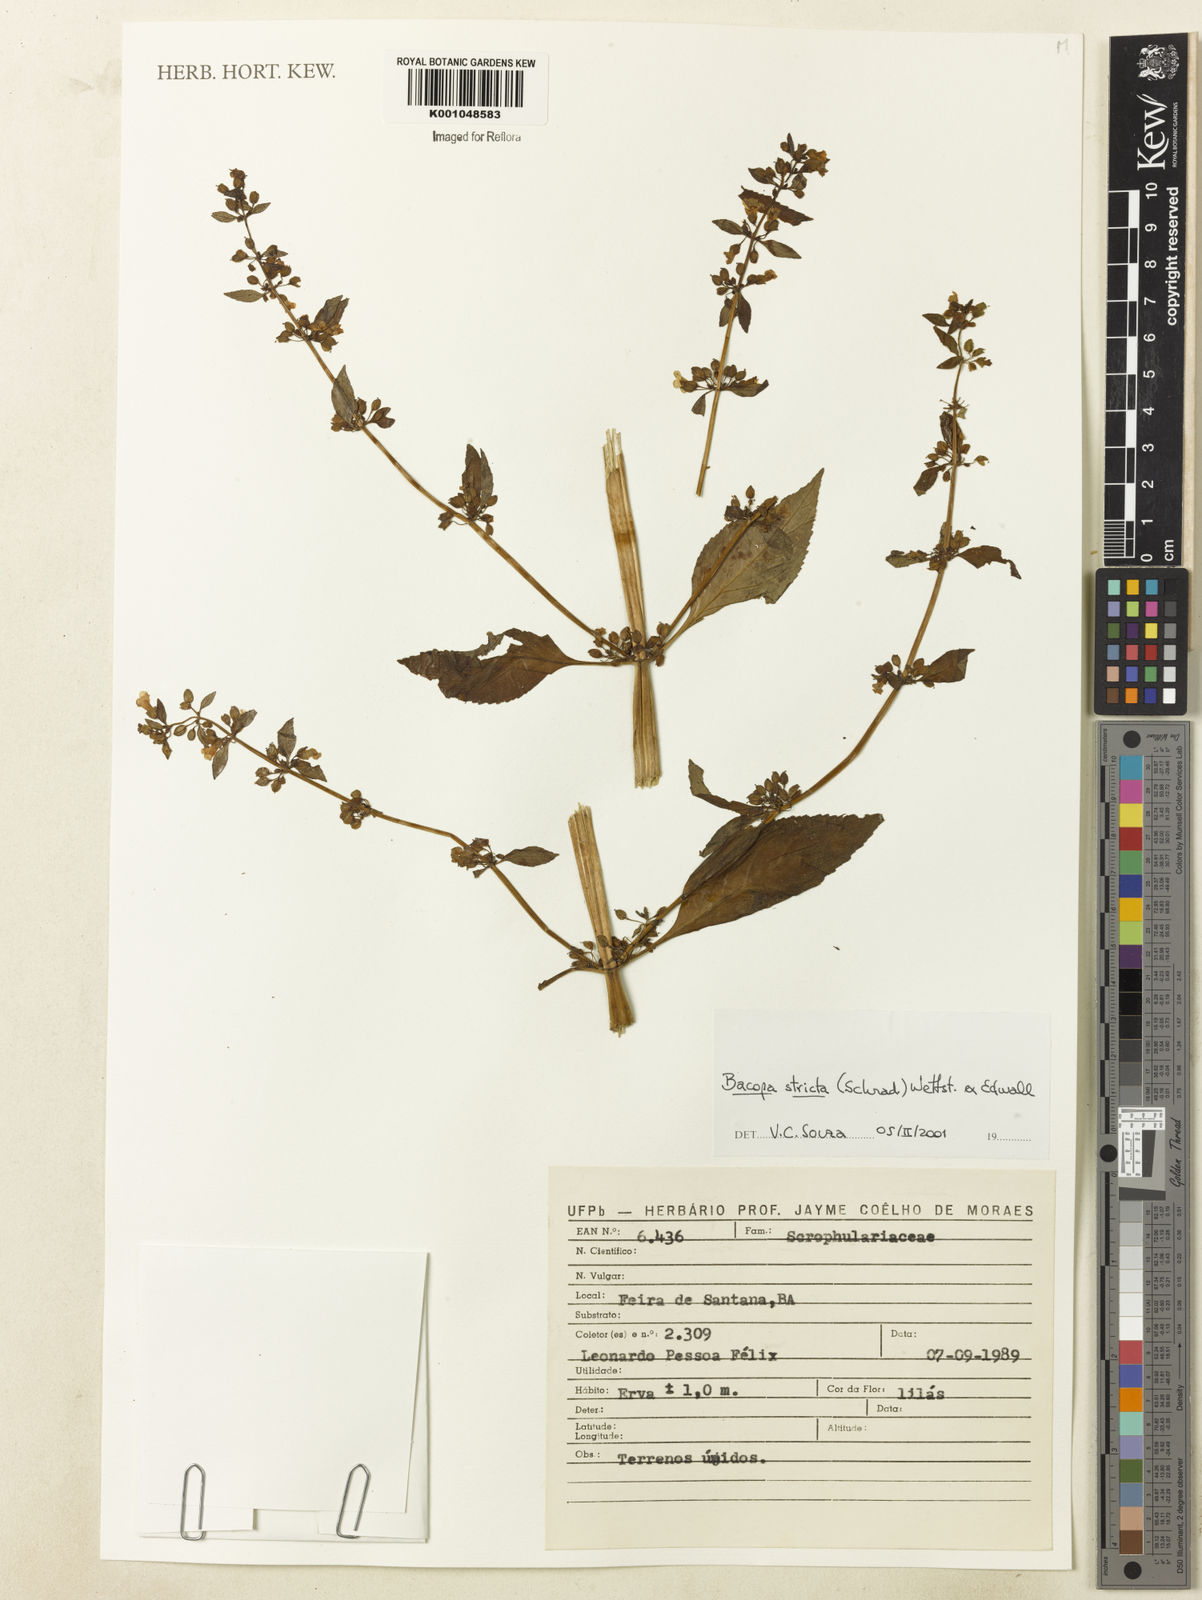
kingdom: Plantae
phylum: Tracheophyta
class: Magnoliopsida
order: Lamiales
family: Plantaginaceae
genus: Bacopa
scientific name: Bacopa stricta
